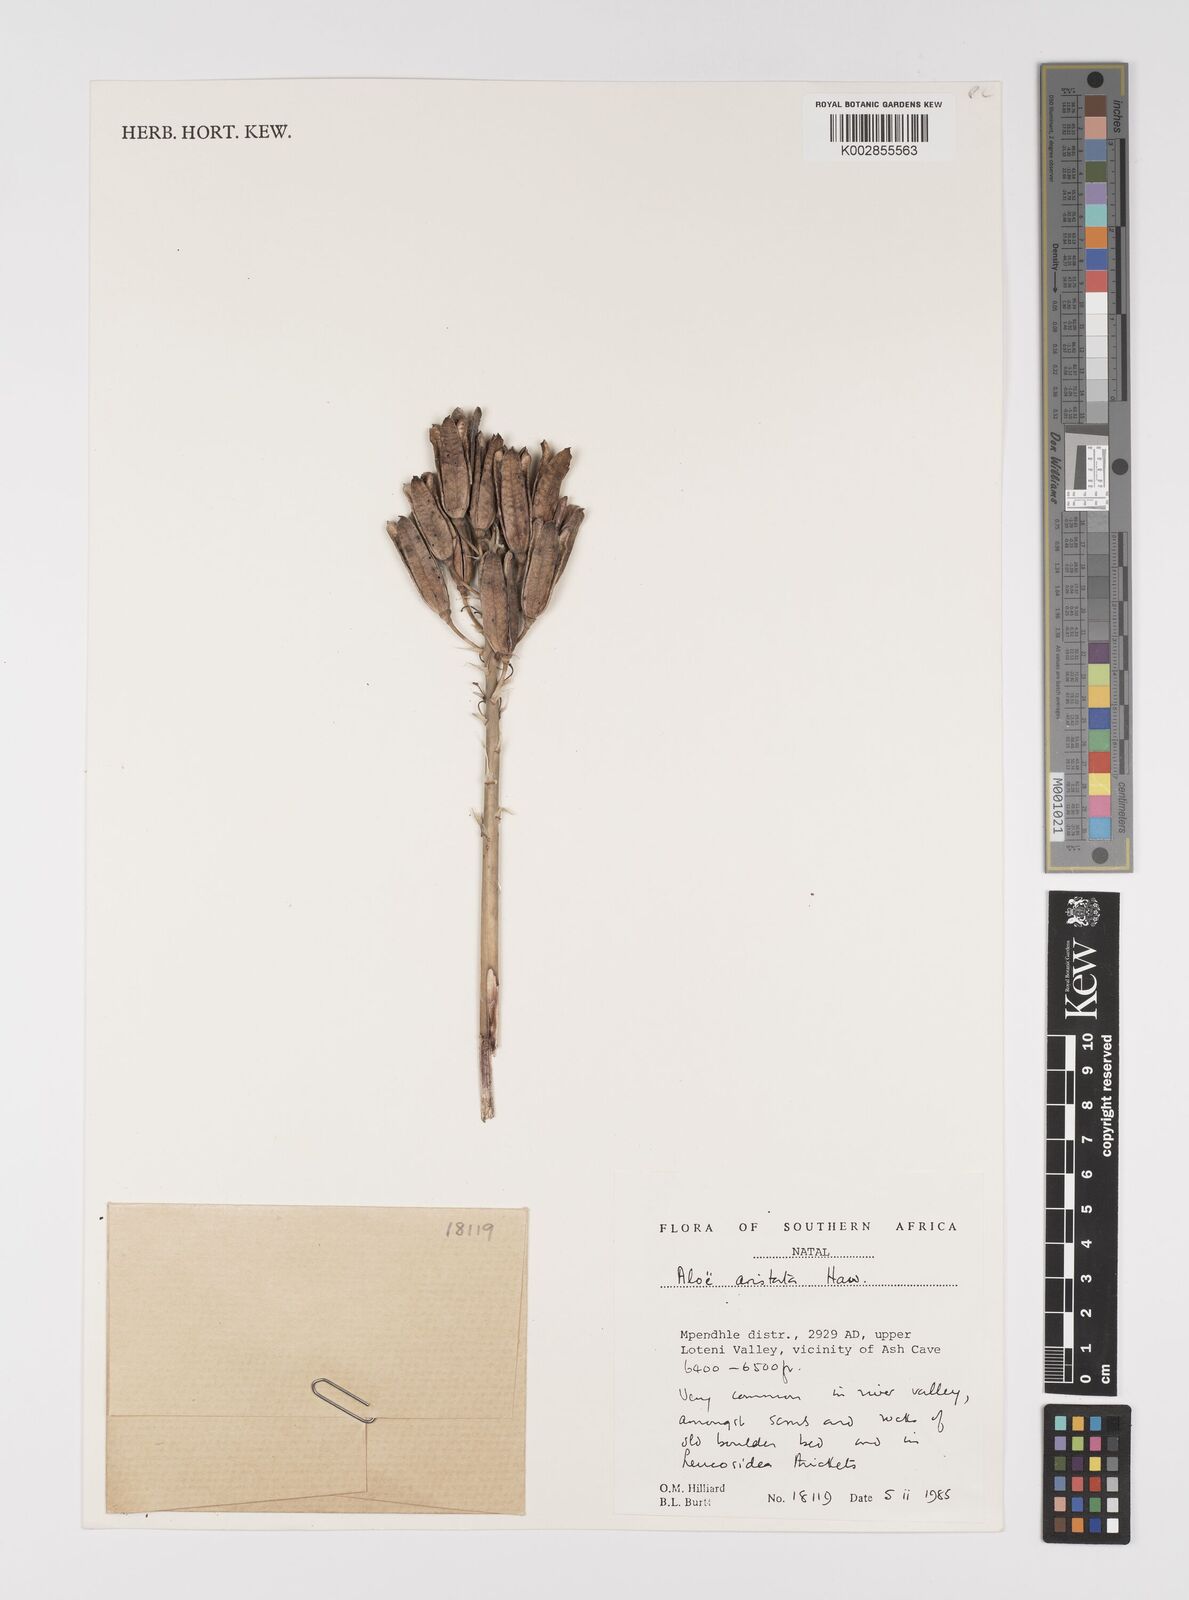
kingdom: Plantae
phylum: Tracheophyta
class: Liliopsida
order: Asparagales
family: Asphodelaceae
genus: Aristaloe
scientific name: Aristaloe aristata
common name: Guinea-fowl aloe
